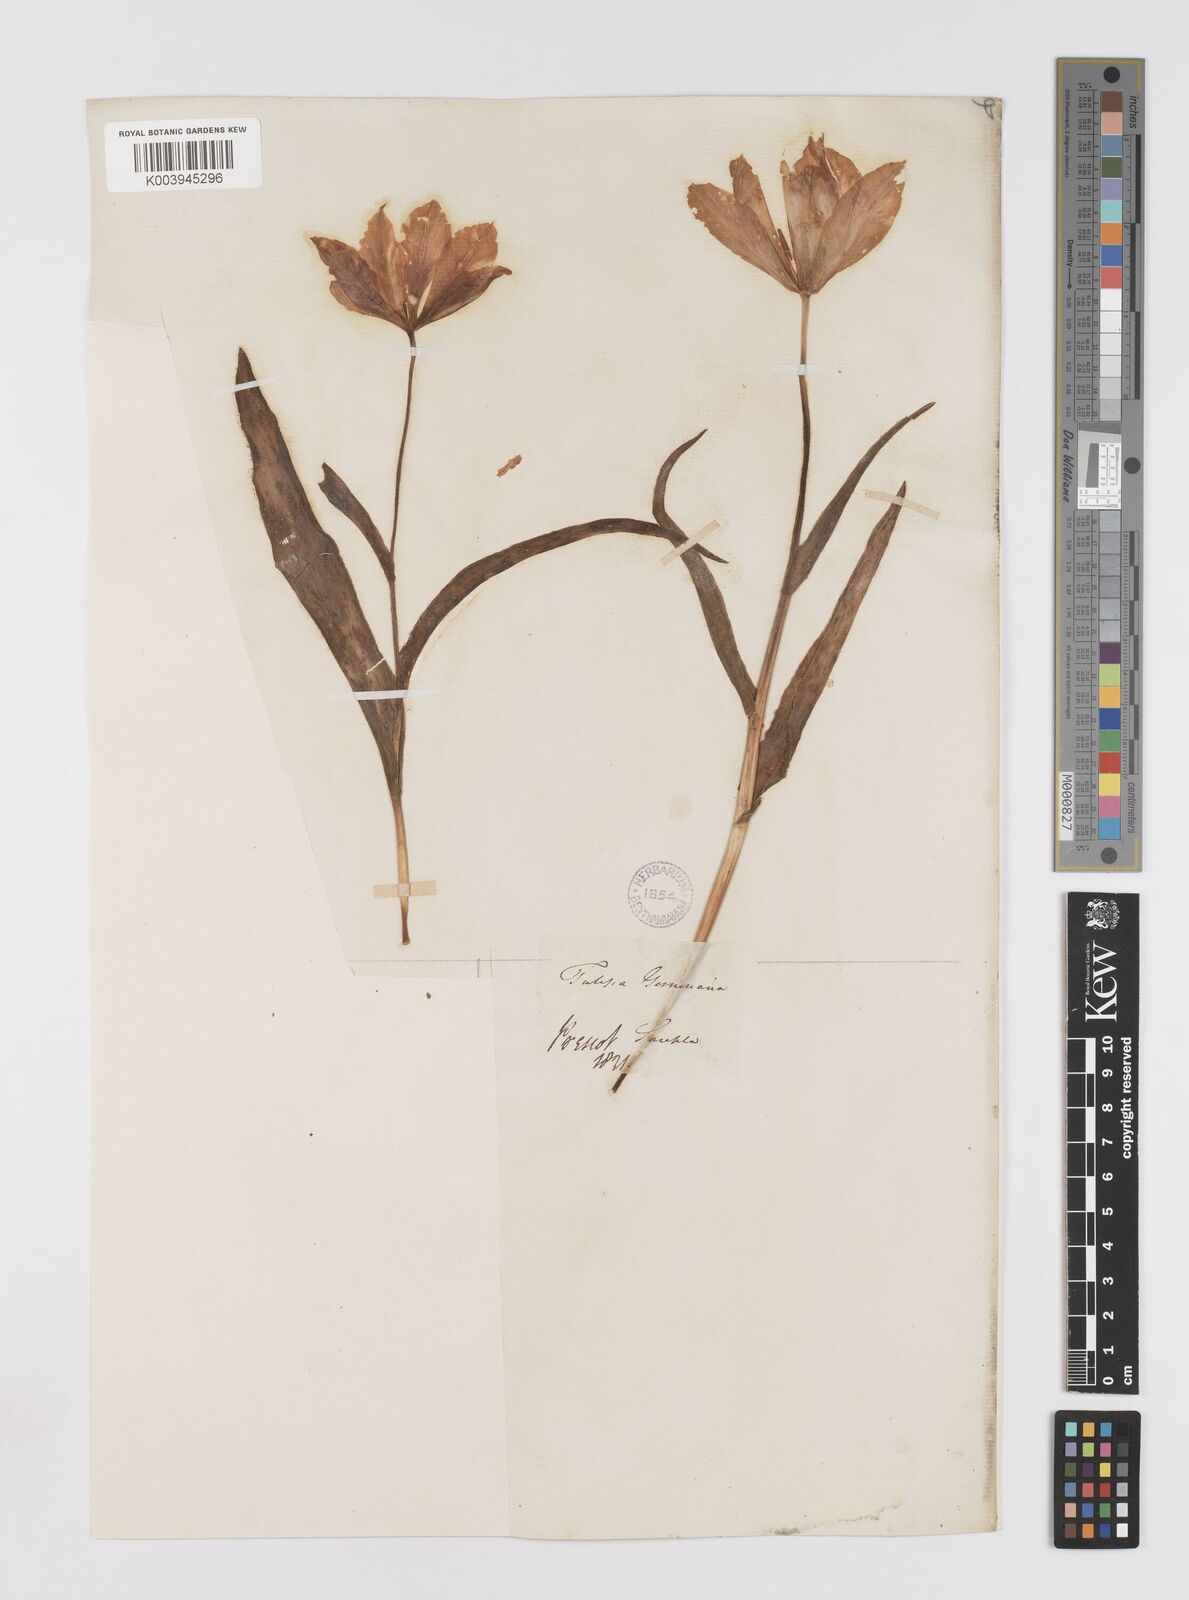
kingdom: Plantae
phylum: Tracheophyta
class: Liliopsida
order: Liliales
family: Liliaceae
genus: Tulipa
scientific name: Tulipa gesneriana
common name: Garden tulip
